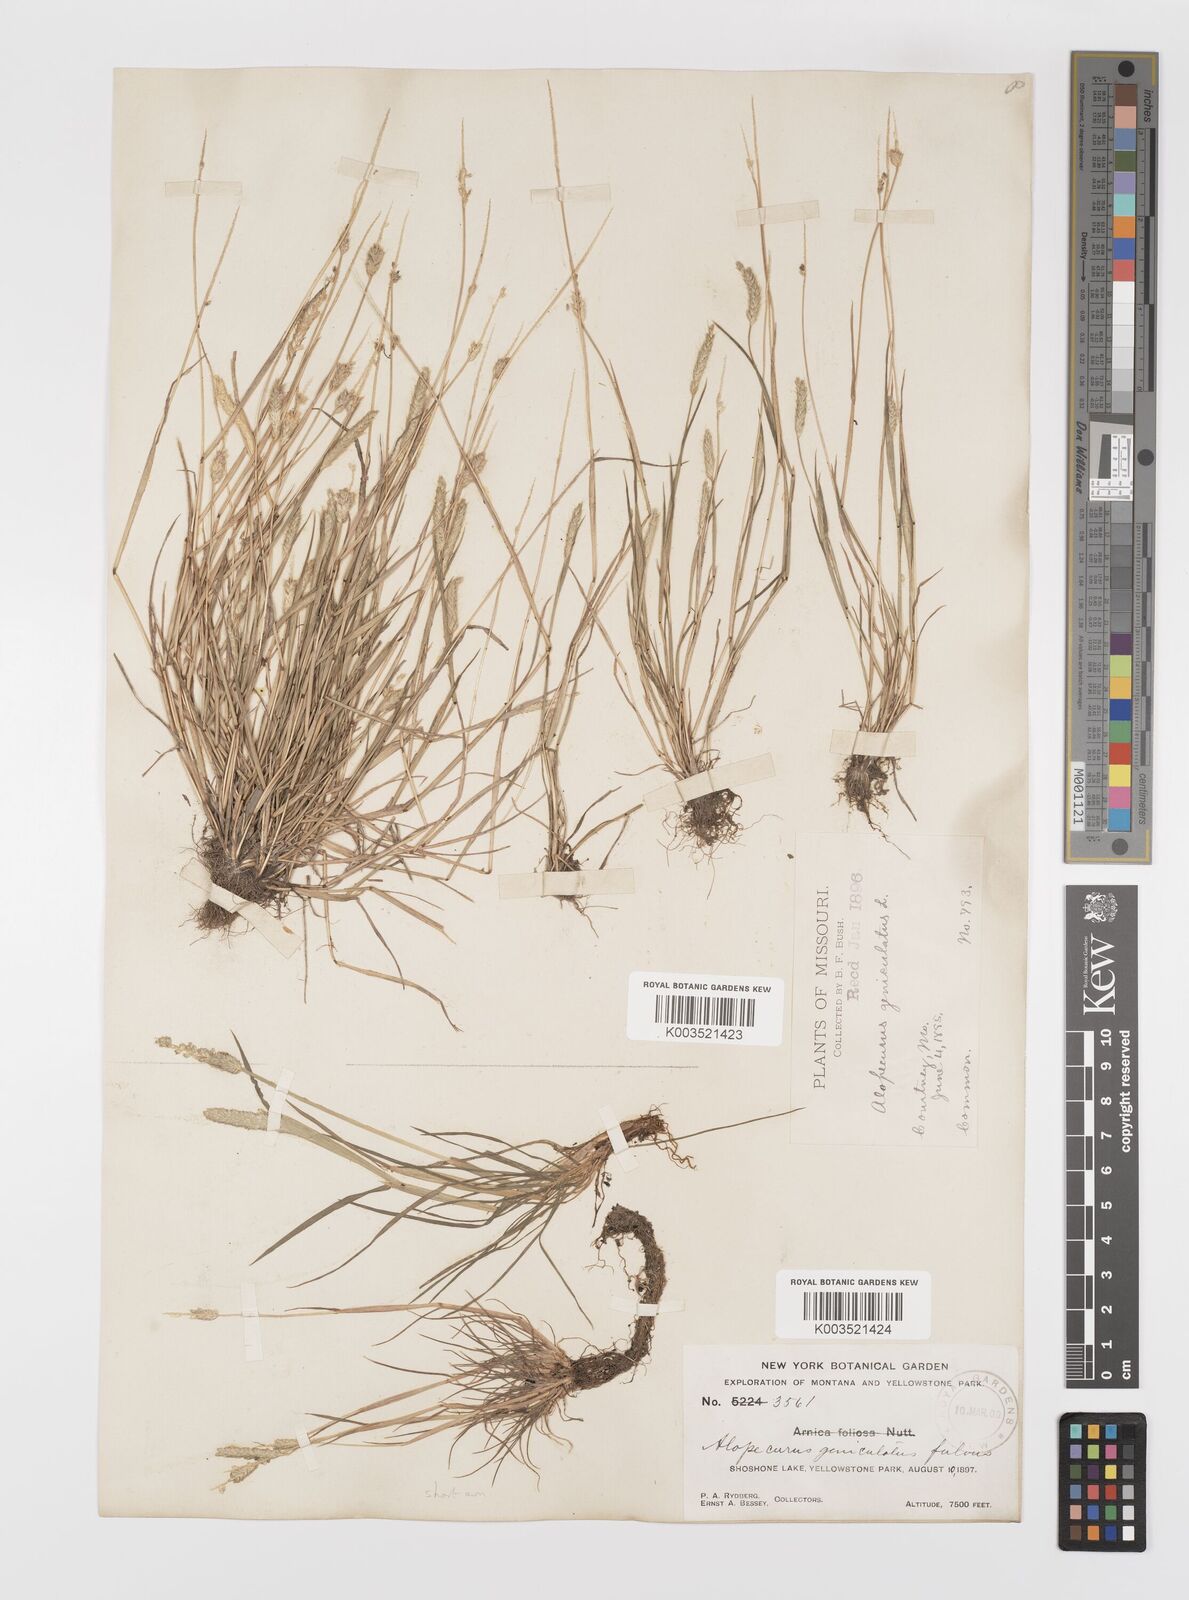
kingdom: Plantae
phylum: Tracheophyta
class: Liliopsida
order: Poales
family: Poaceae
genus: Alopecurus
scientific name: Alopecurus carolinianus
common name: Tufted foxtail
